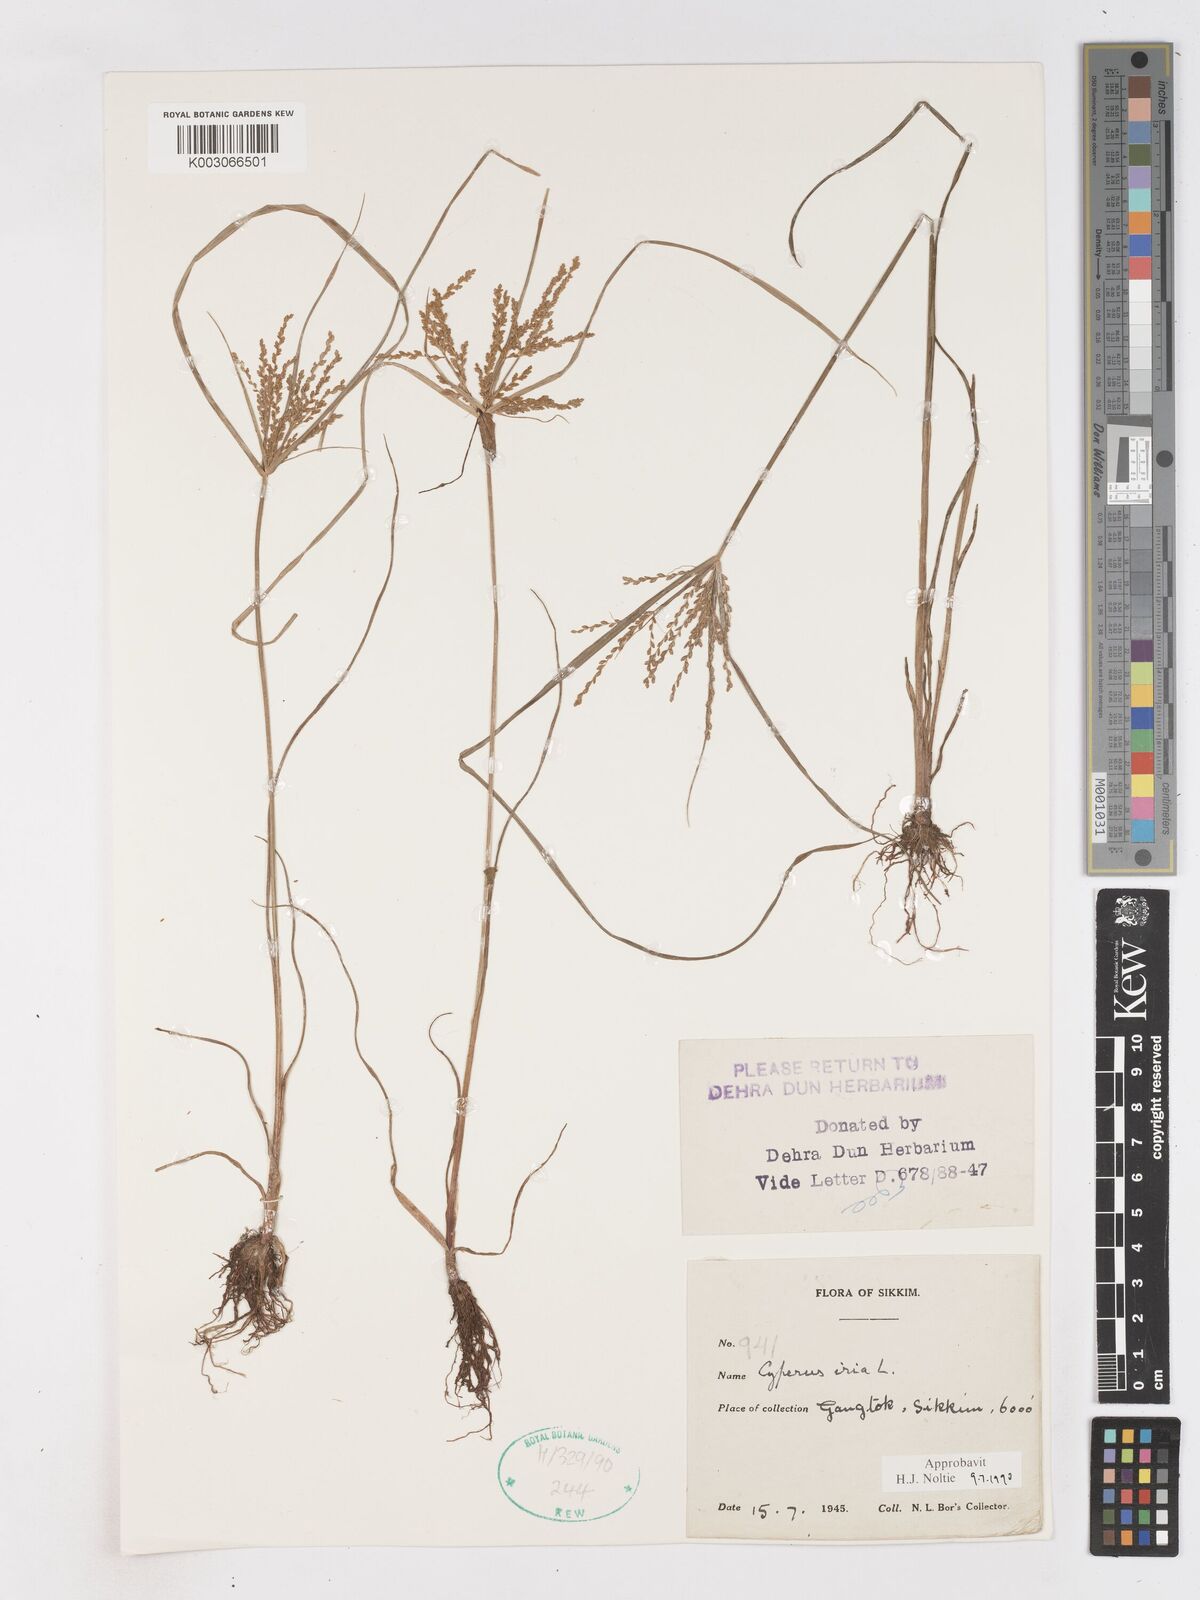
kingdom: Plantae
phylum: Tracheophyta
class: Liliopsida
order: Poales
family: Cyperaceae
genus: Cyperus
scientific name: Cyperus iria
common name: Ricefield flatsedge
